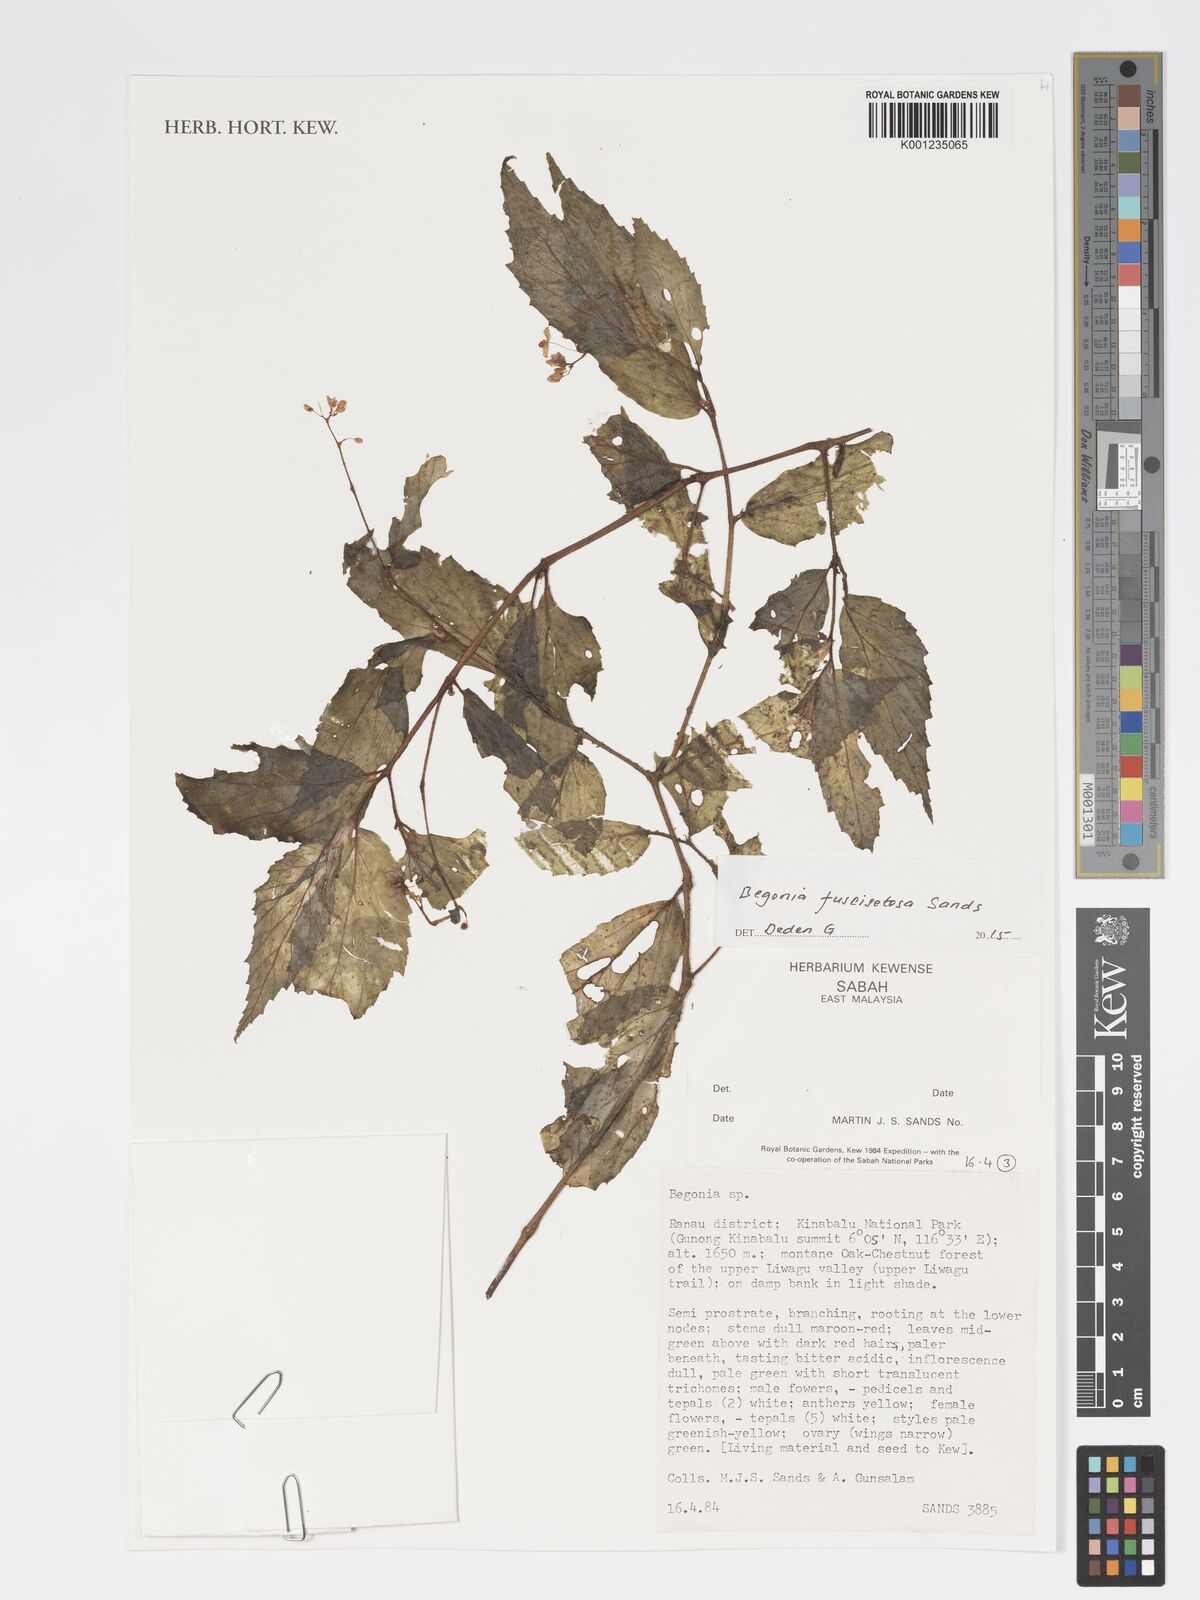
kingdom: Plantae
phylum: Tracheophyta
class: Magnoliopsida
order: Cucurbitales
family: Begoniaceae
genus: Begonia
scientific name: Begonia fuscisetosa
